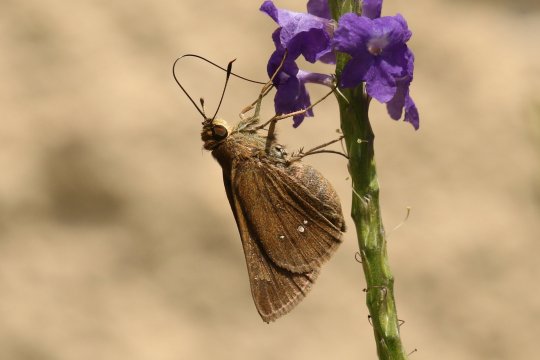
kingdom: Animalia
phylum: Arthropoda
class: Insecta
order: Lepidoptera
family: Hesperiidae
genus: Decinea
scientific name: Decinea percosius
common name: Double-dotted Skipper
